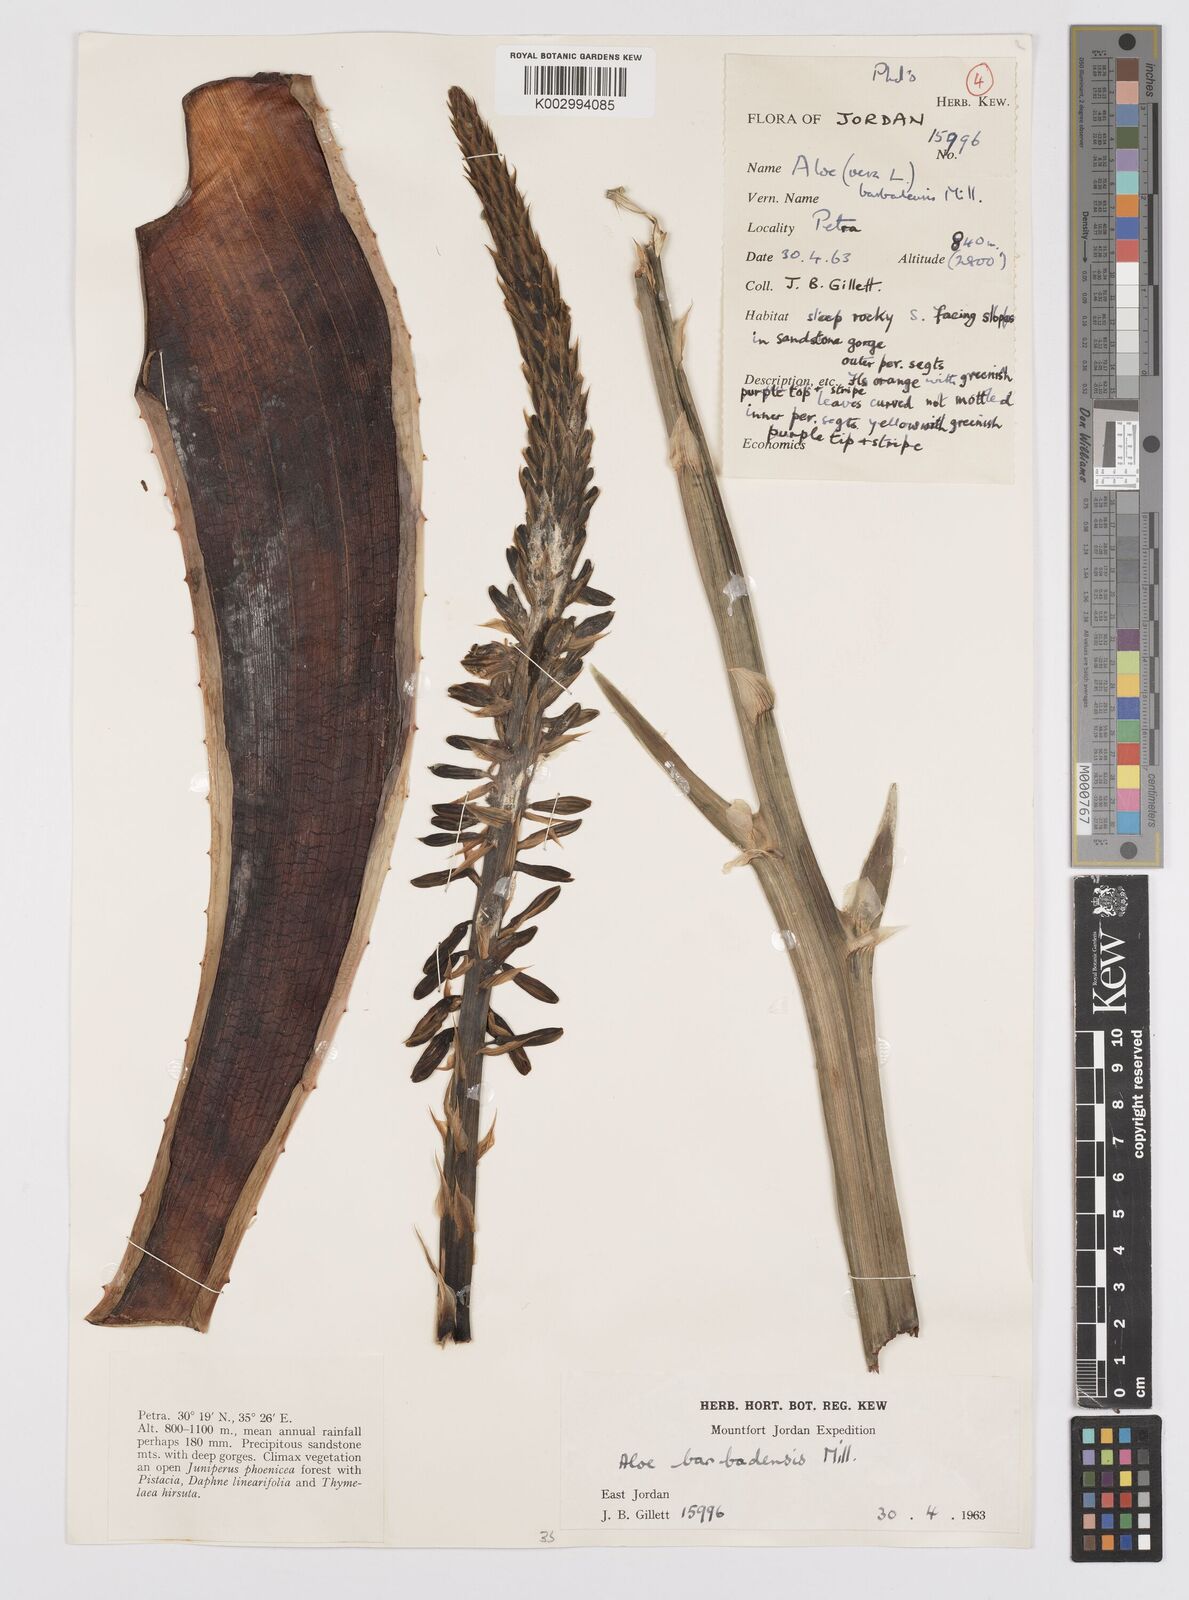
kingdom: Plantae
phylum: Tracheophyta
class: Liliopsida
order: Asparagales
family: Asphodelaceae
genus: Aloe
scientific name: Aloe vera
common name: Barbados aloe
